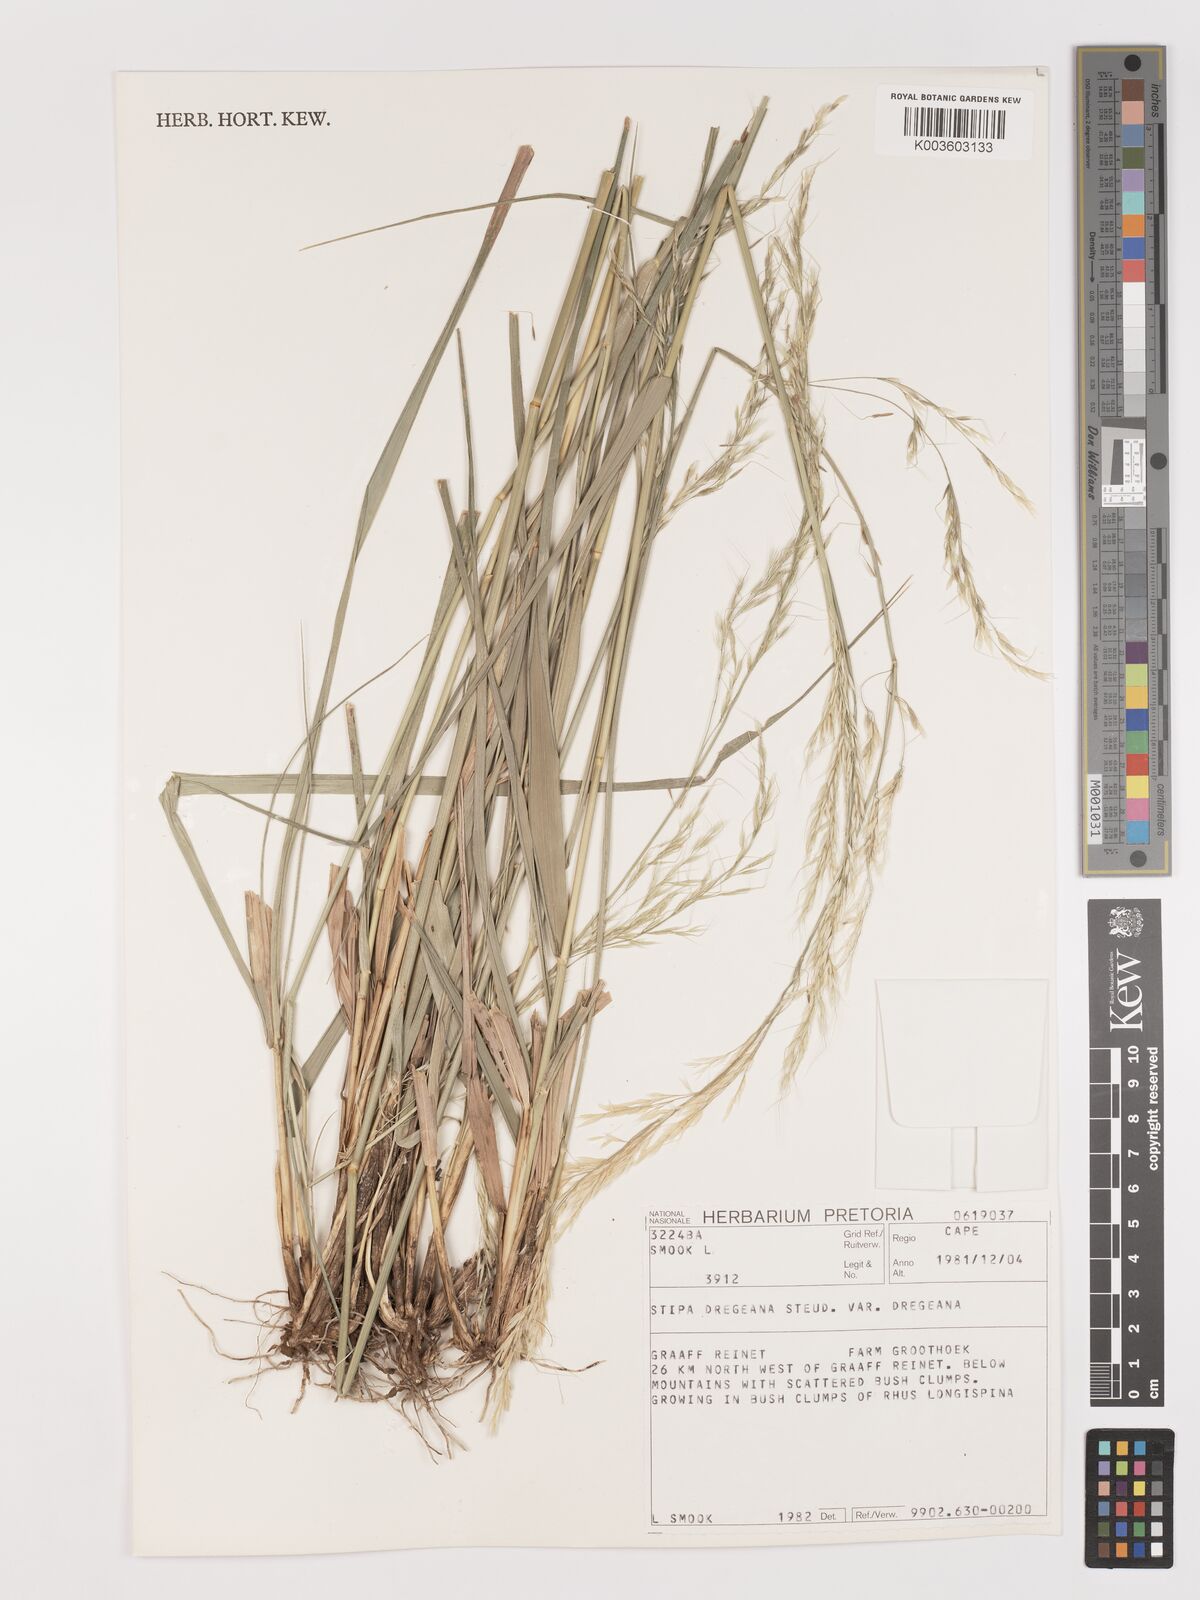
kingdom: Plantae
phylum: Tracheophyta
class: Liliopsida
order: Poales
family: Poaceae
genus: Stipa
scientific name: Stipa dregeana
